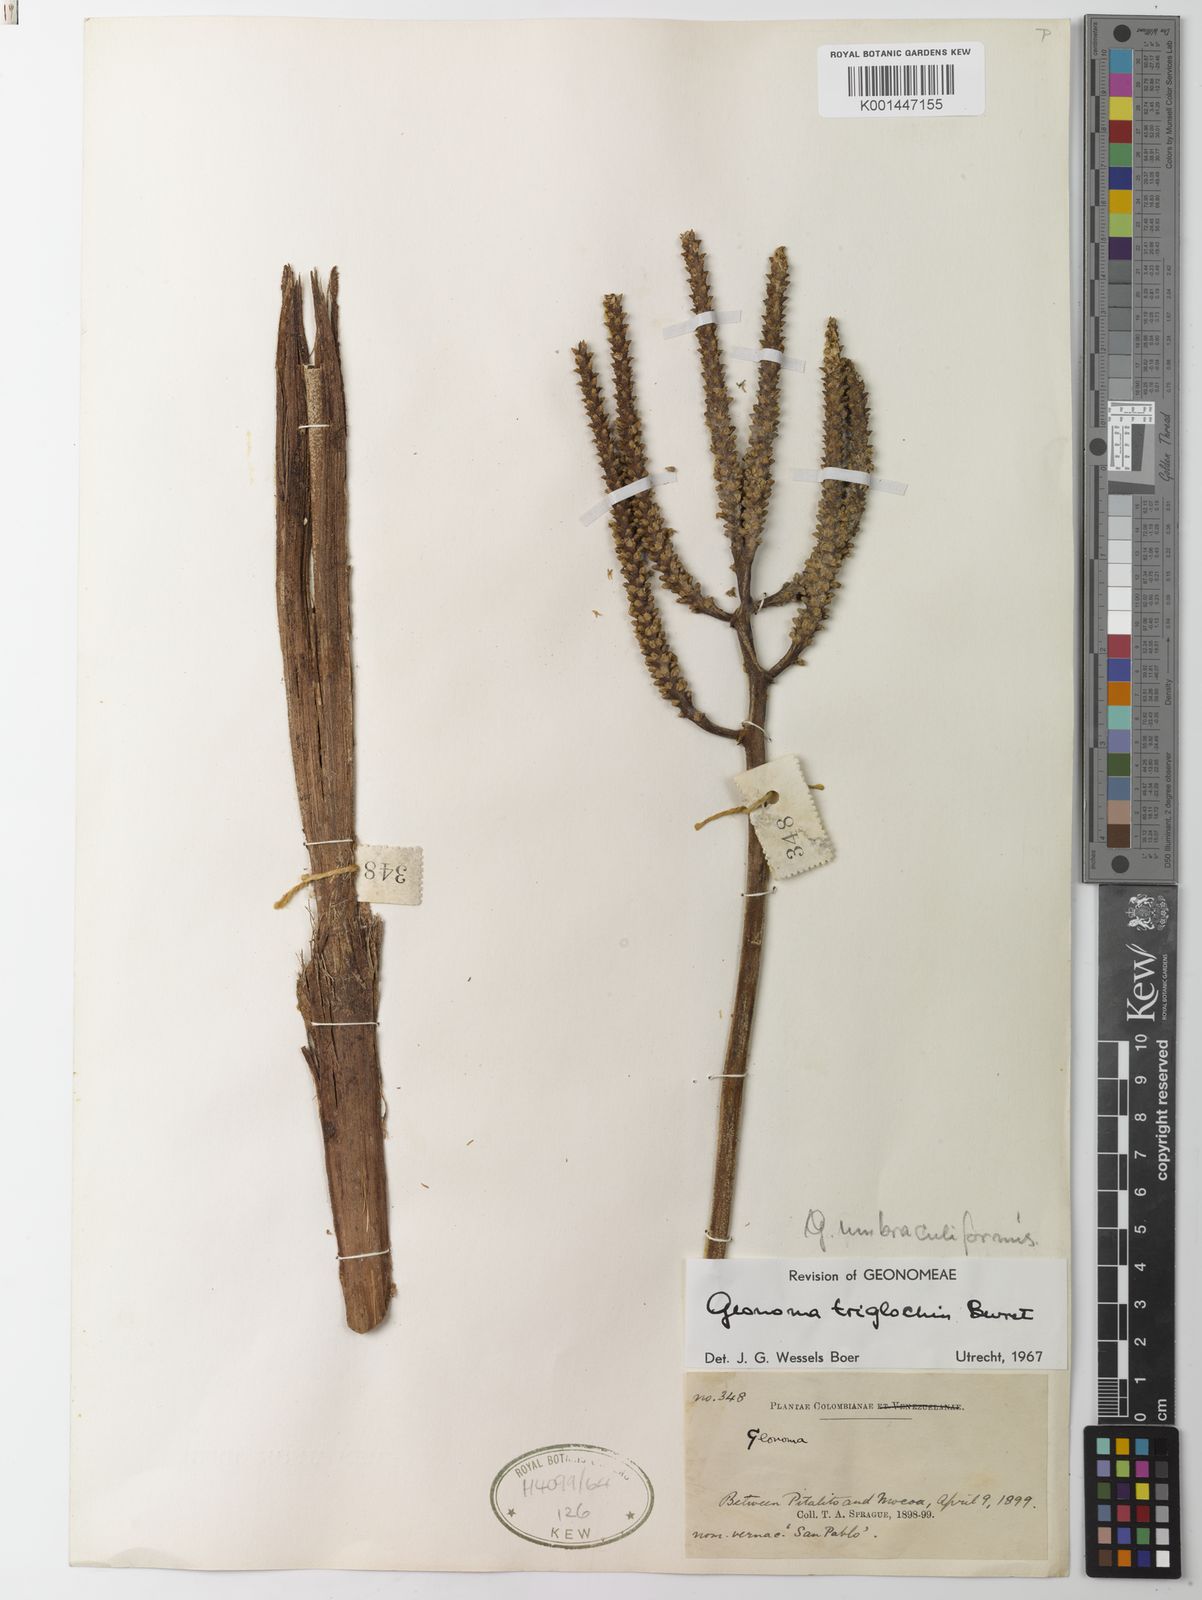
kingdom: Plantae
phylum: Tracheophyta
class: Liliopsida
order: Arecales
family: Arecaceae
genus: Geonoma
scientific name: Geonoma triglochin
